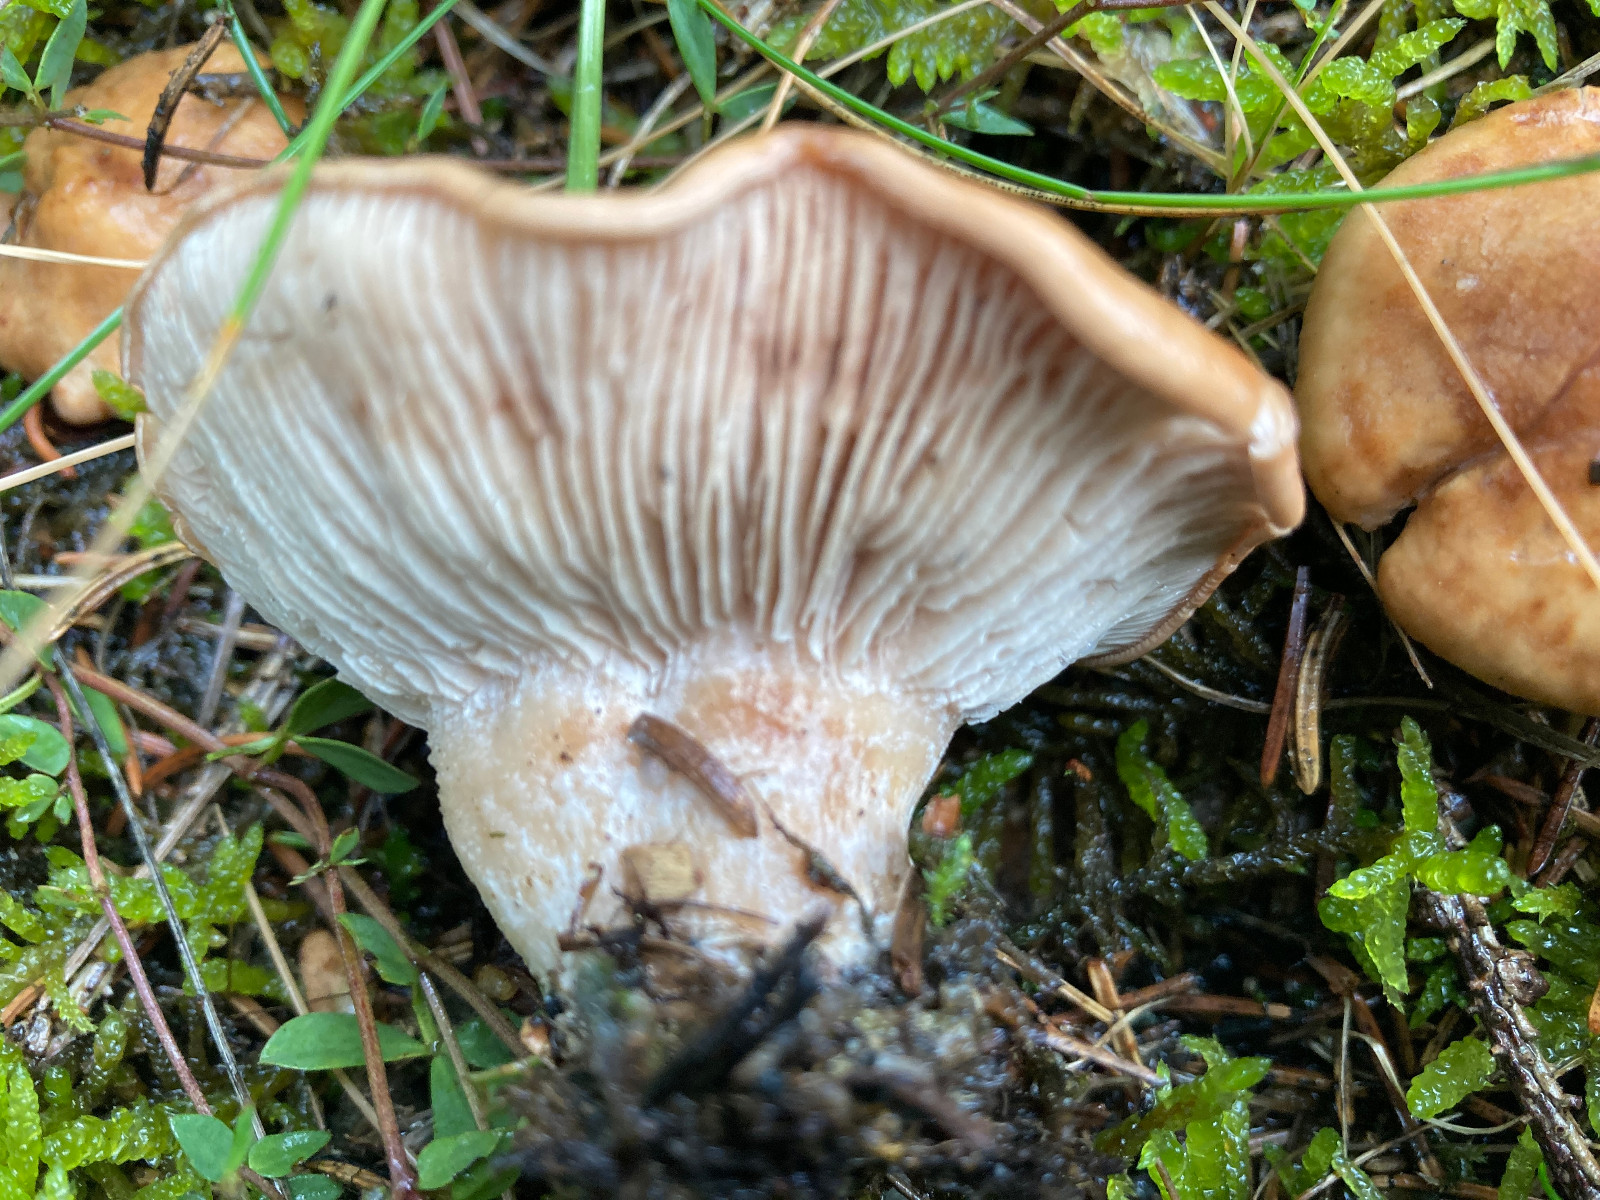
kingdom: Fungi
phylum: Basidiomycota
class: Agaricomycetes
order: Agaricales
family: Entolomataceae
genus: Clitopilus
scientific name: Clitopilus geminus
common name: kødfarvet troldhat
